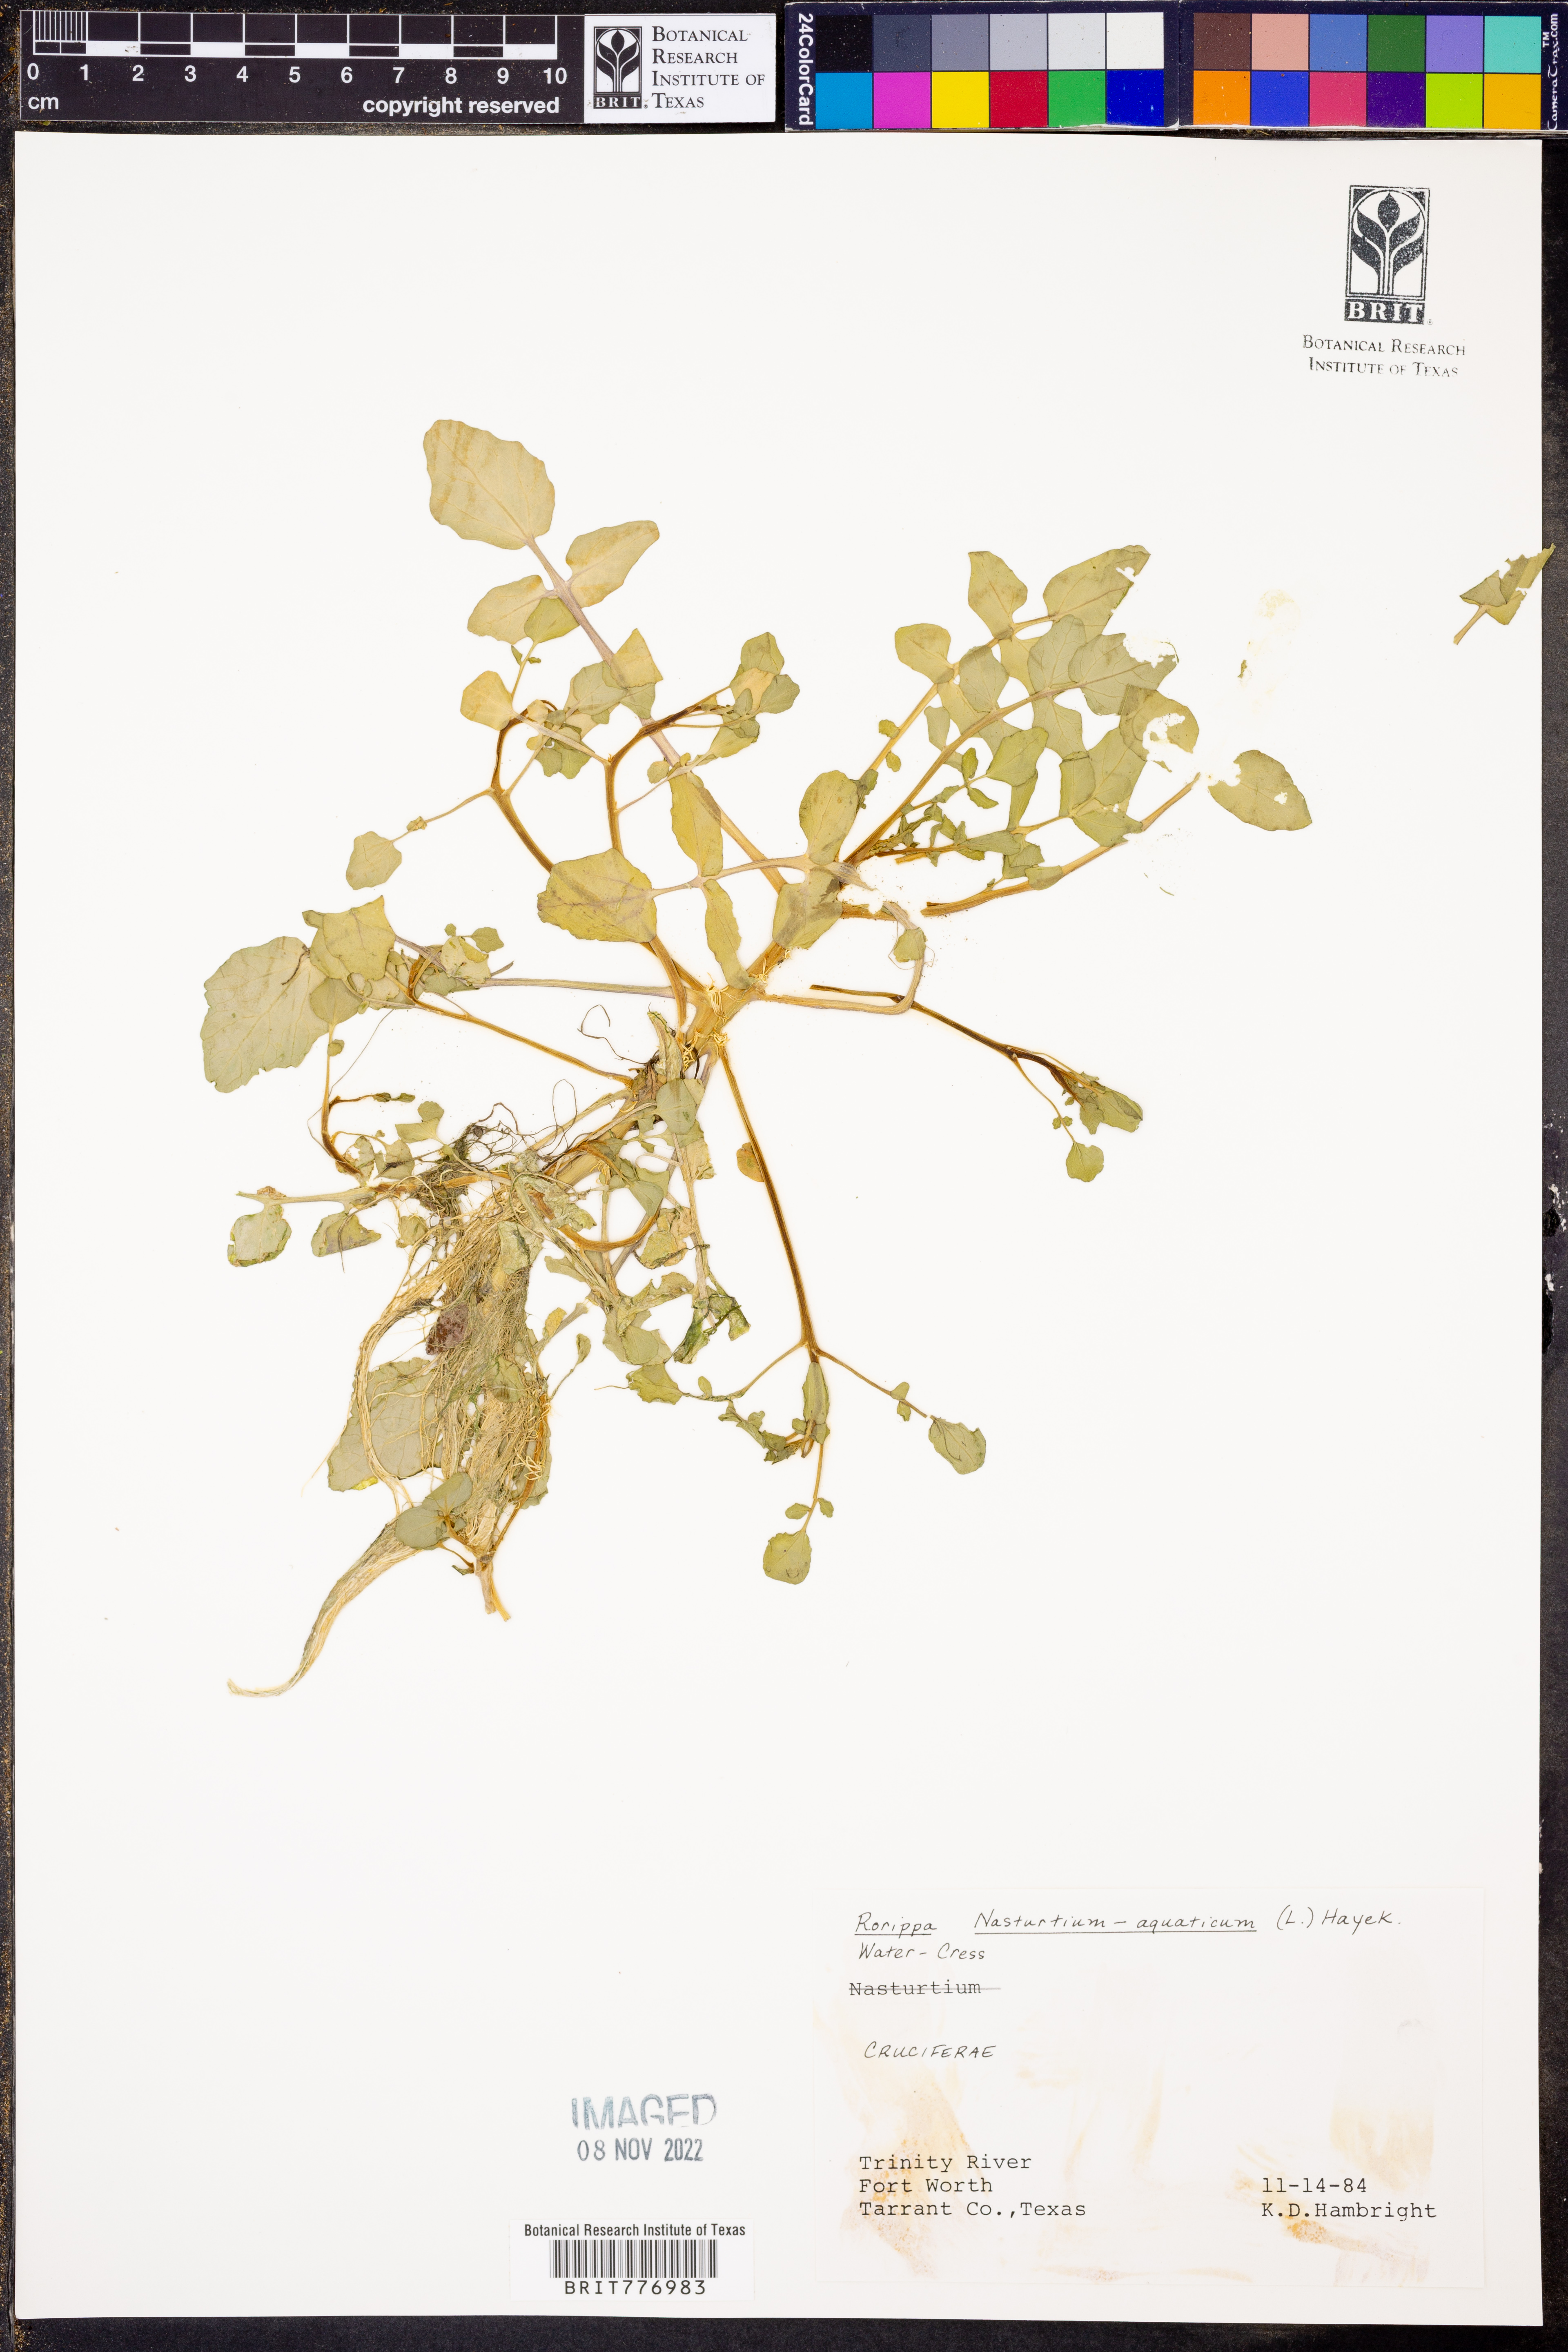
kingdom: Plantae
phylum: Tracheophyta
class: Magnoliopsida
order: Brassicales
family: Brassicaceae
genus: Nasturtium
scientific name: Nasturtium officinale
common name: Watercress
